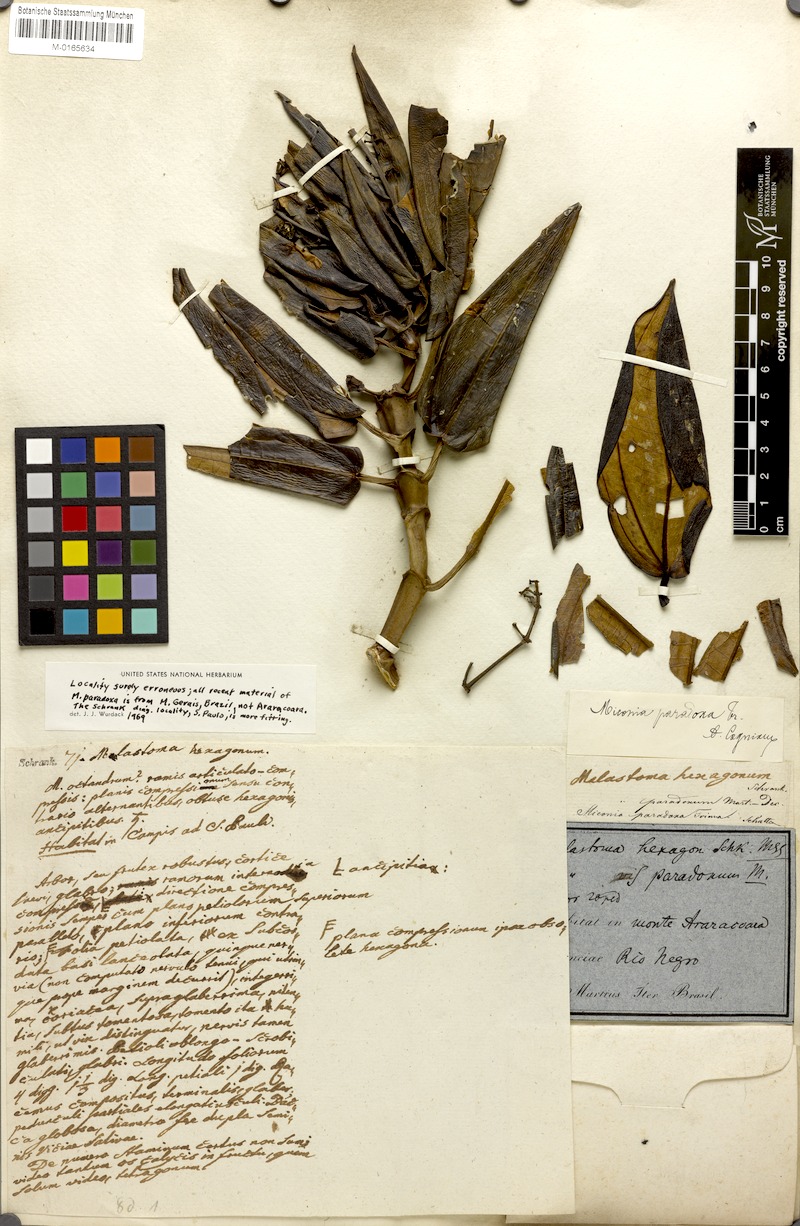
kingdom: Plantae
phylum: Tracheophyta
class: Magnoliopsida
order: Myrtales
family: Melastomataceae
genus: Miconia
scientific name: Miconia paradoxa
